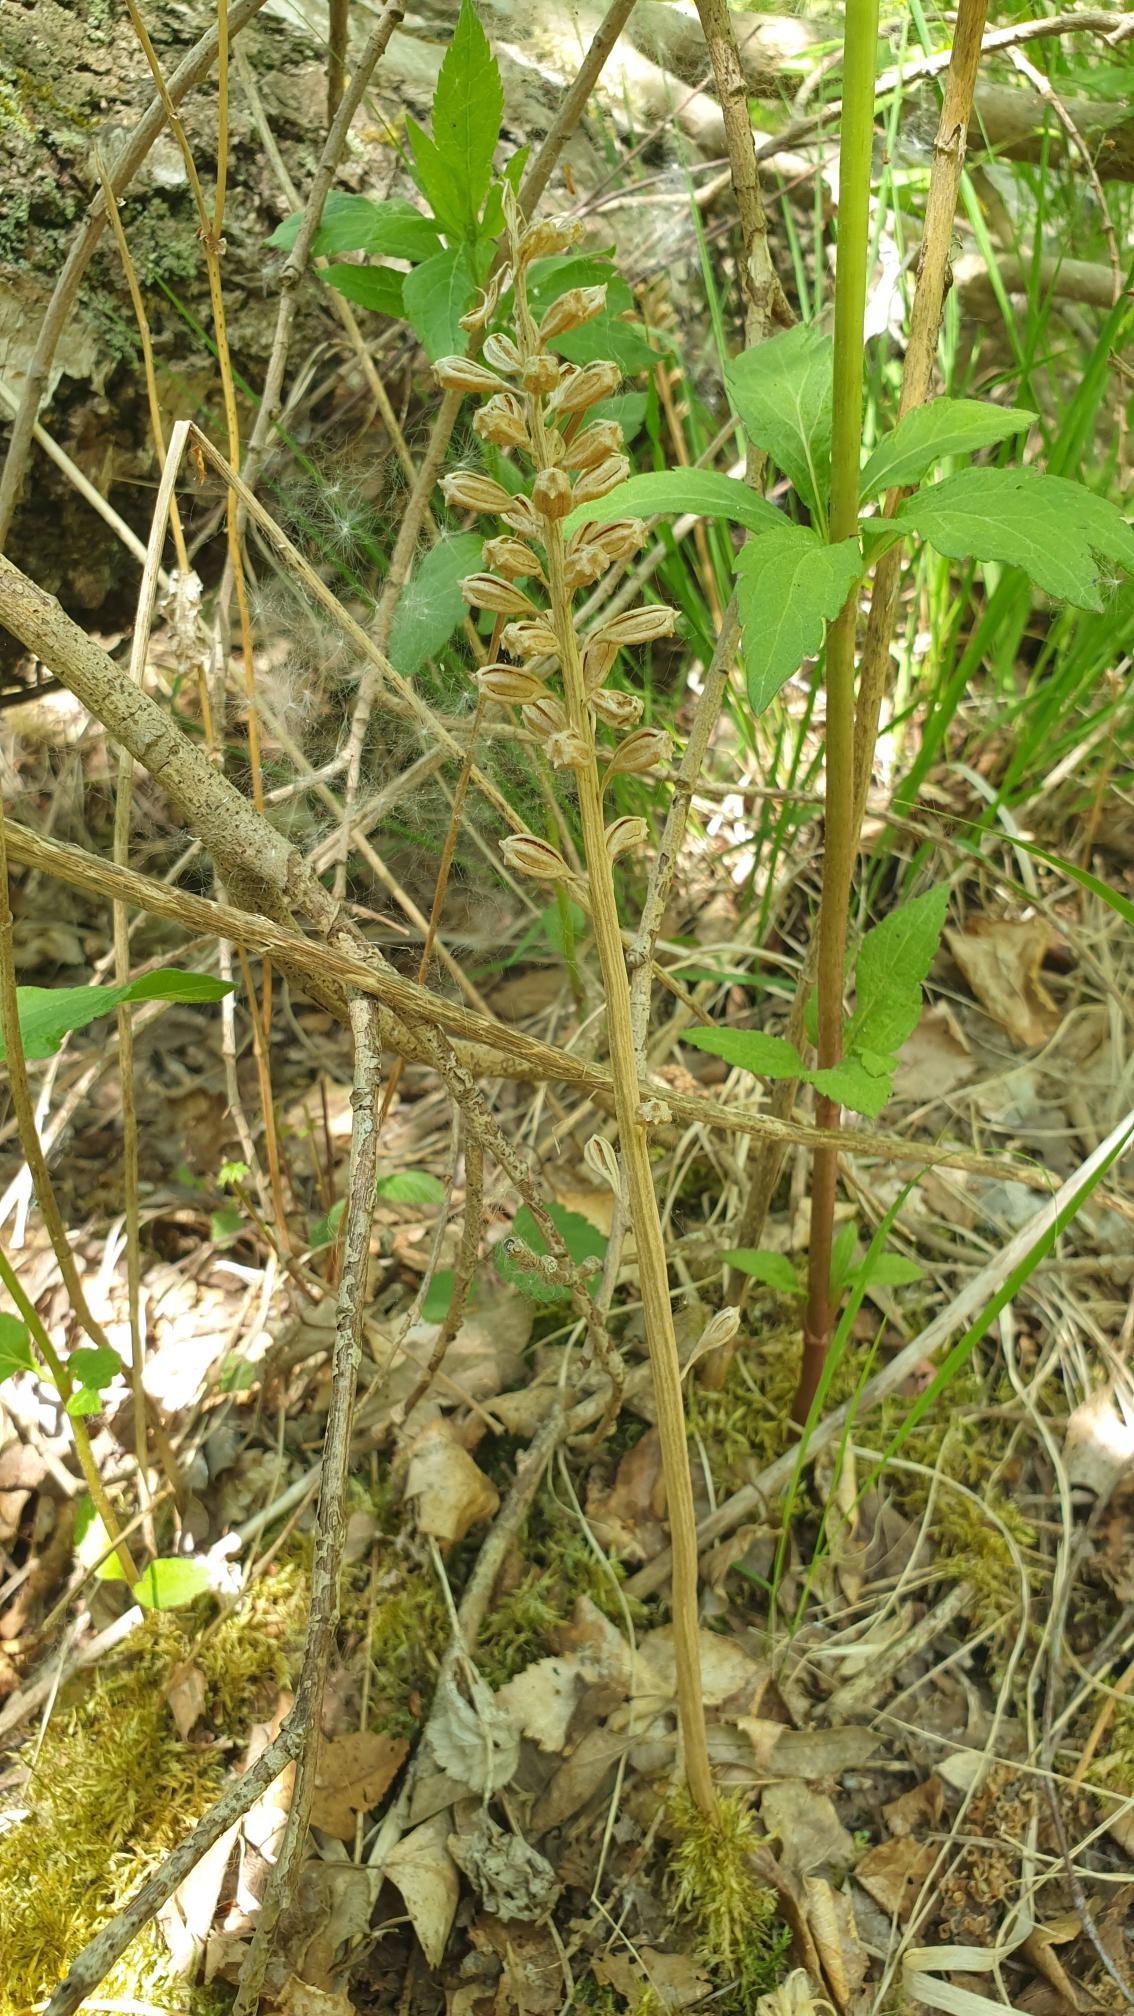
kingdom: Plantae
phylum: Tracheophyta
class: Liliopsida
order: Asparagales
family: Orchidaceae
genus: Neottia
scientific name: Neottia nidus-avis
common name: Rederod
